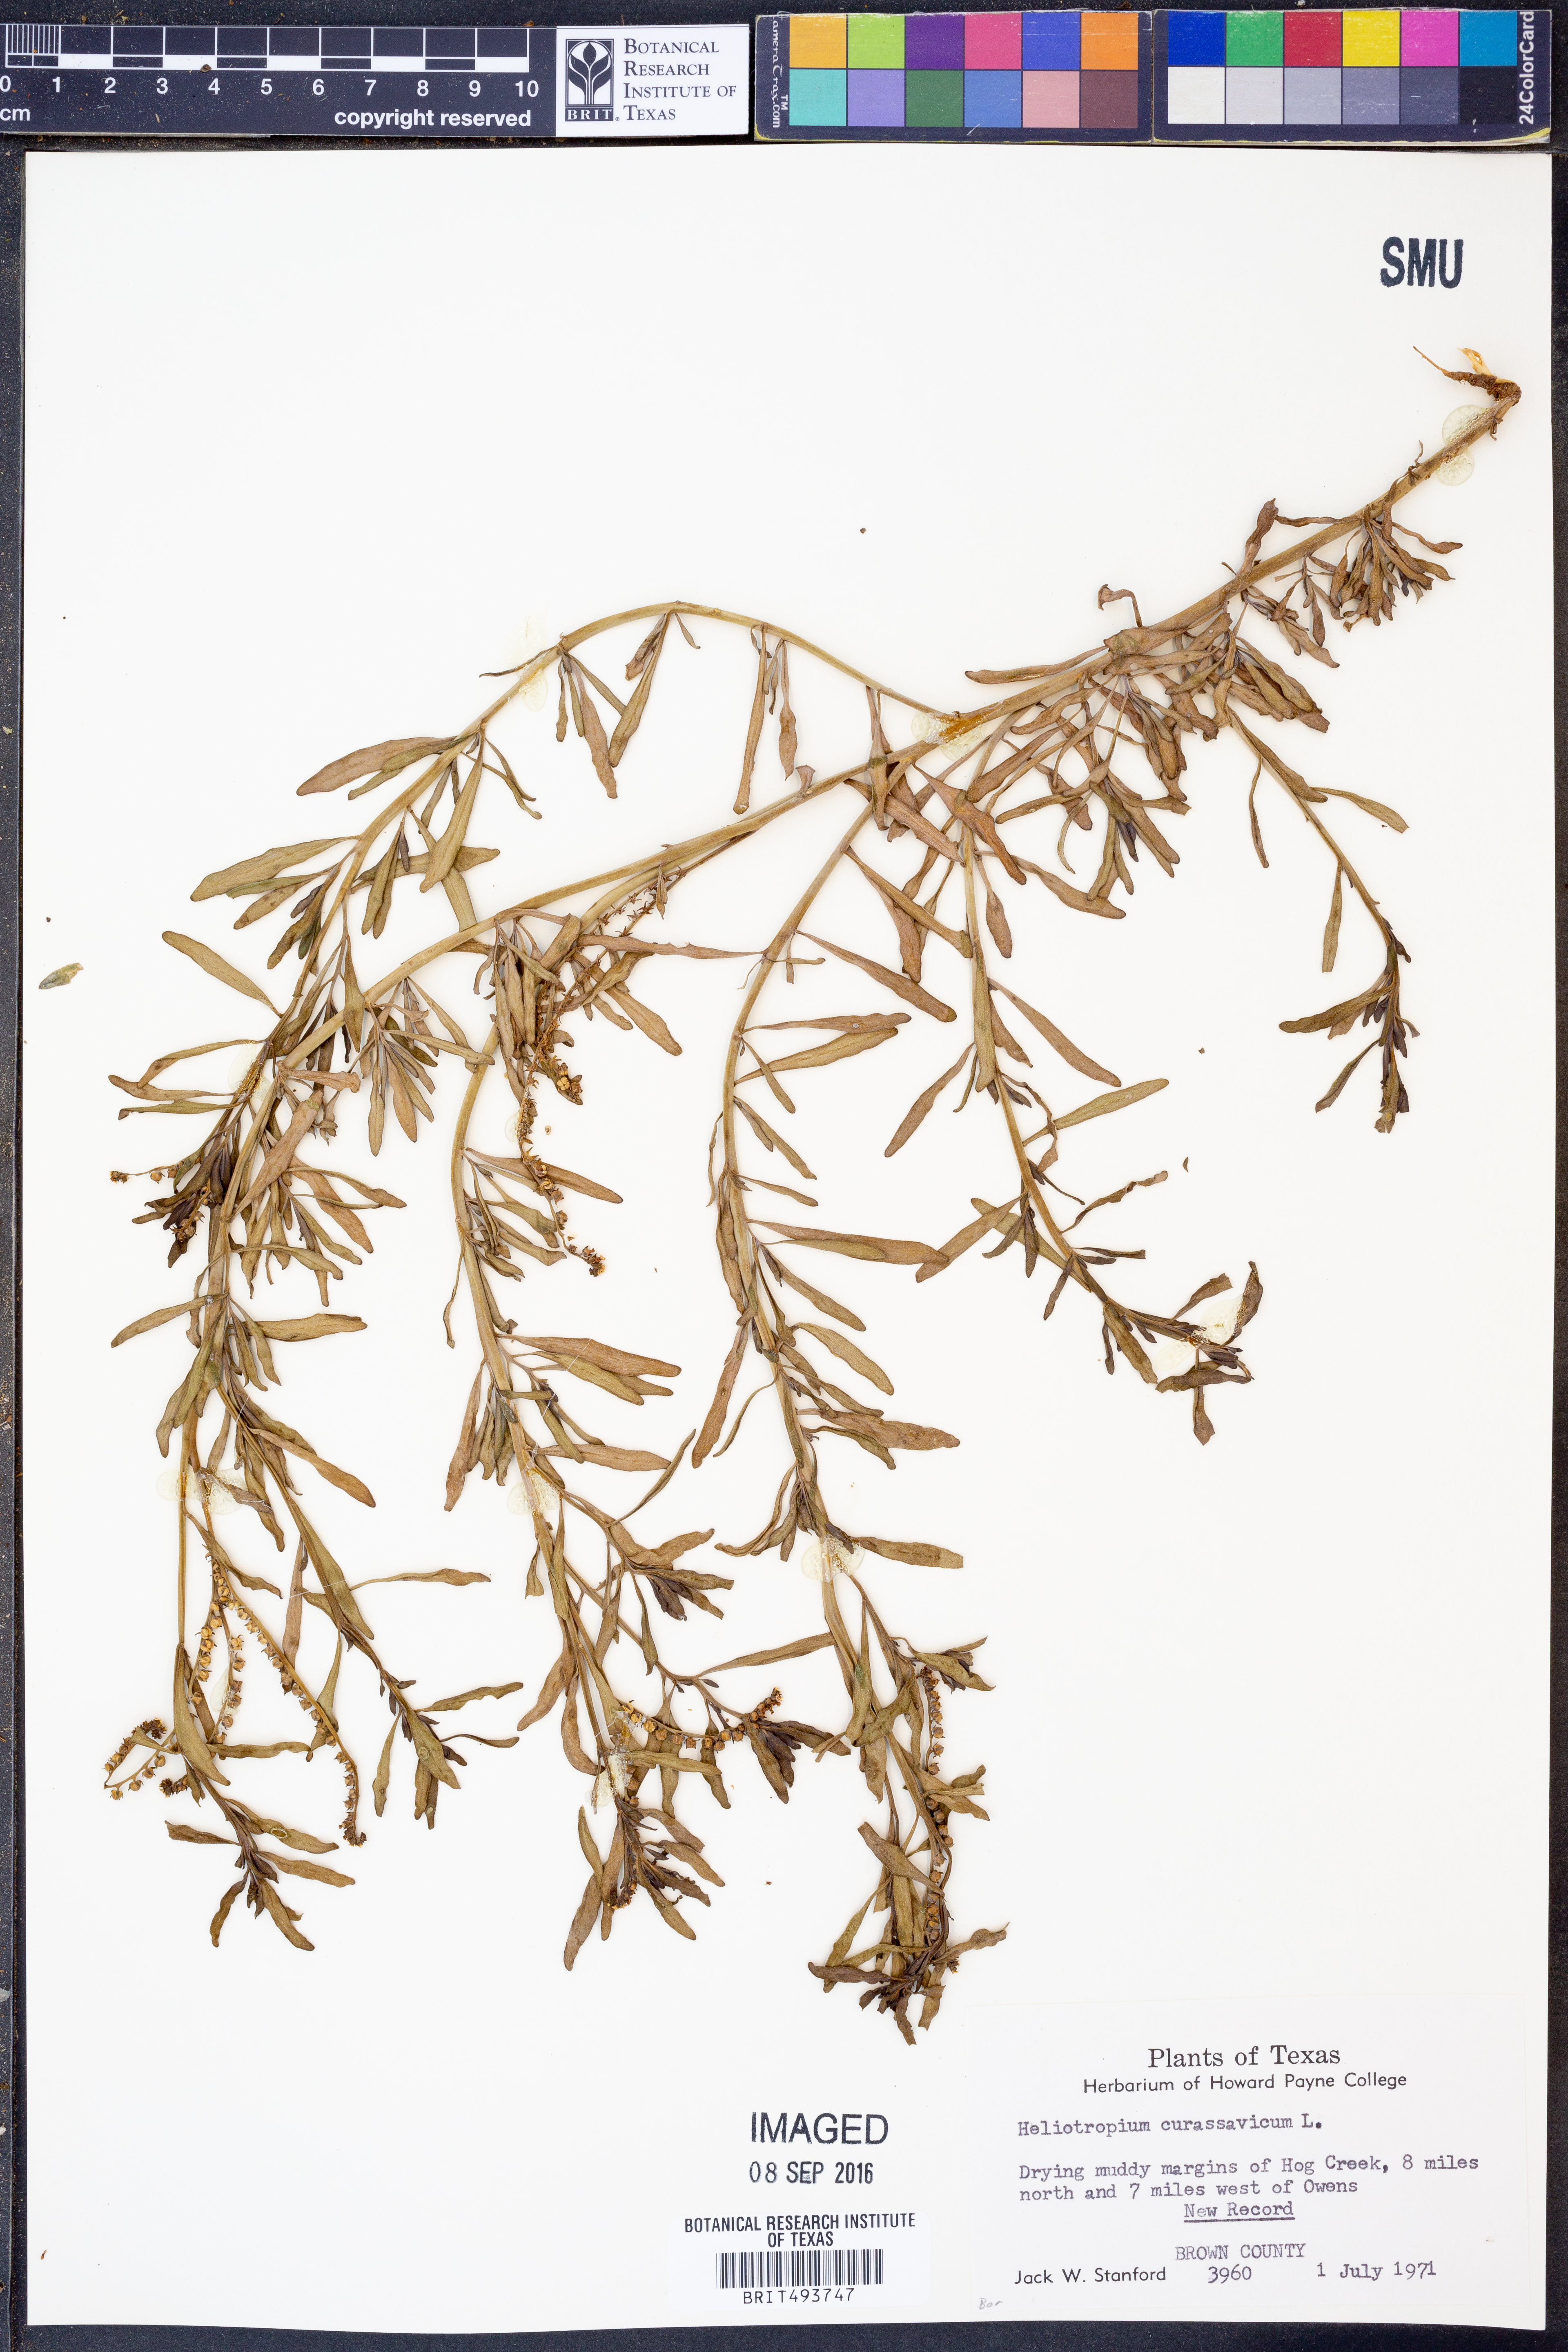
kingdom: Plantae
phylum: Tracheophyta
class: Magnoliopsida
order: Boraginales
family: Heliotropiaceae
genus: Heliotropium
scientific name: Heliotropium curassavicum
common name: Seaside heliotrope
